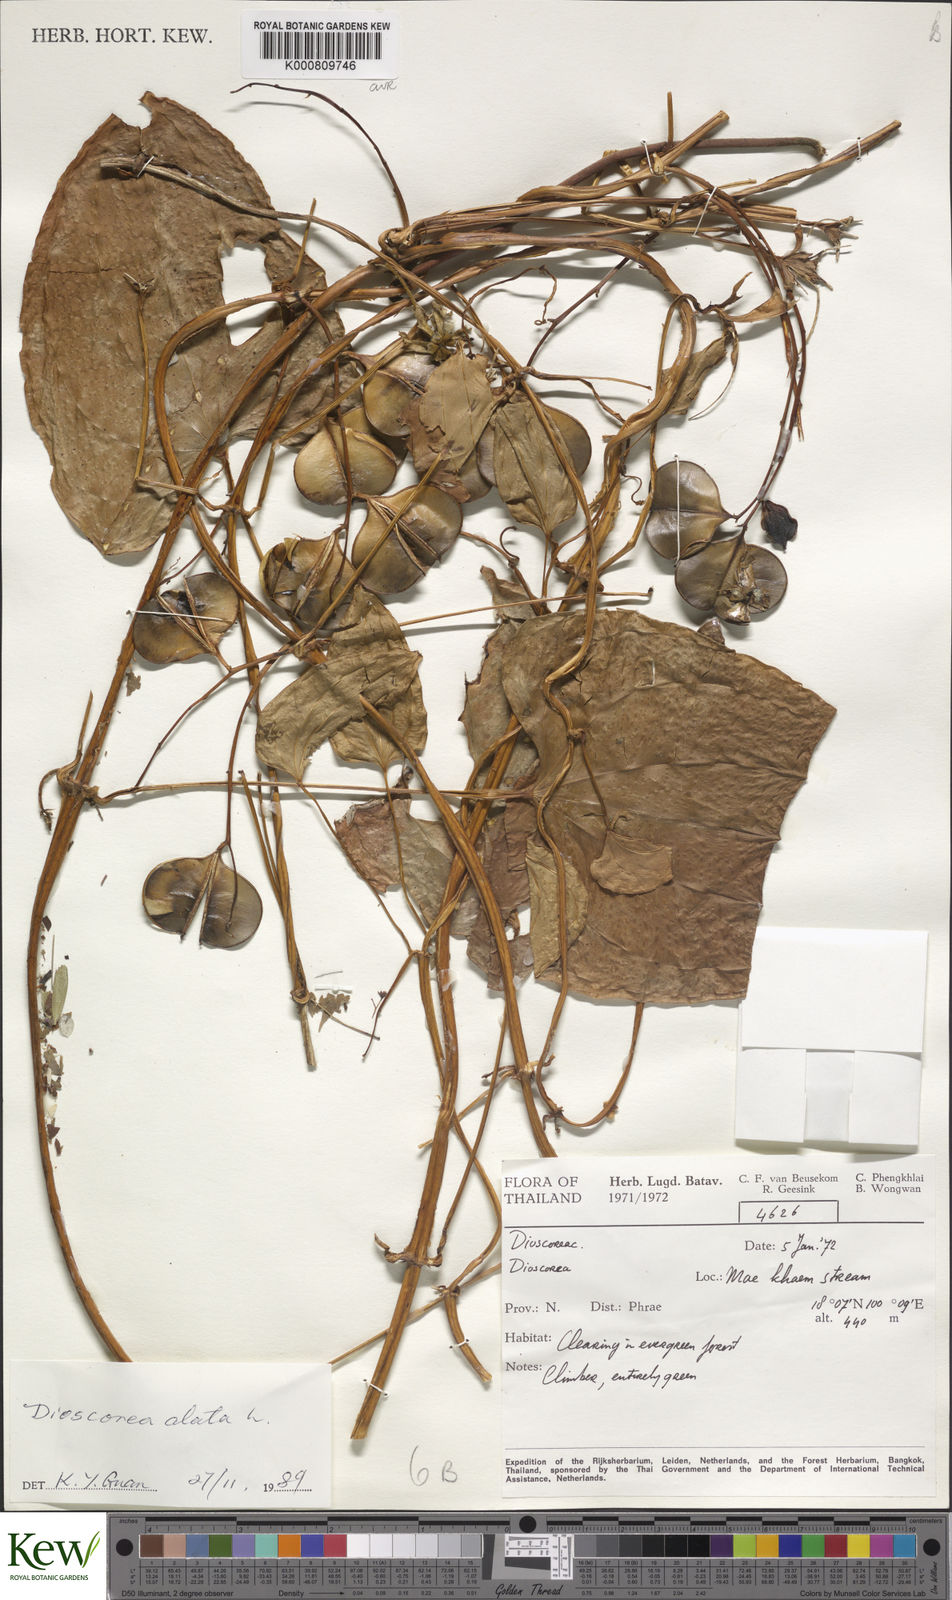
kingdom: Plantae
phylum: Tracheophyta
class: Liliopsida
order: Dioscoreales
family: Dioscoreaceae
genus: Dioscorea
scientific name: Dioscorea alata
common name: Water yam
